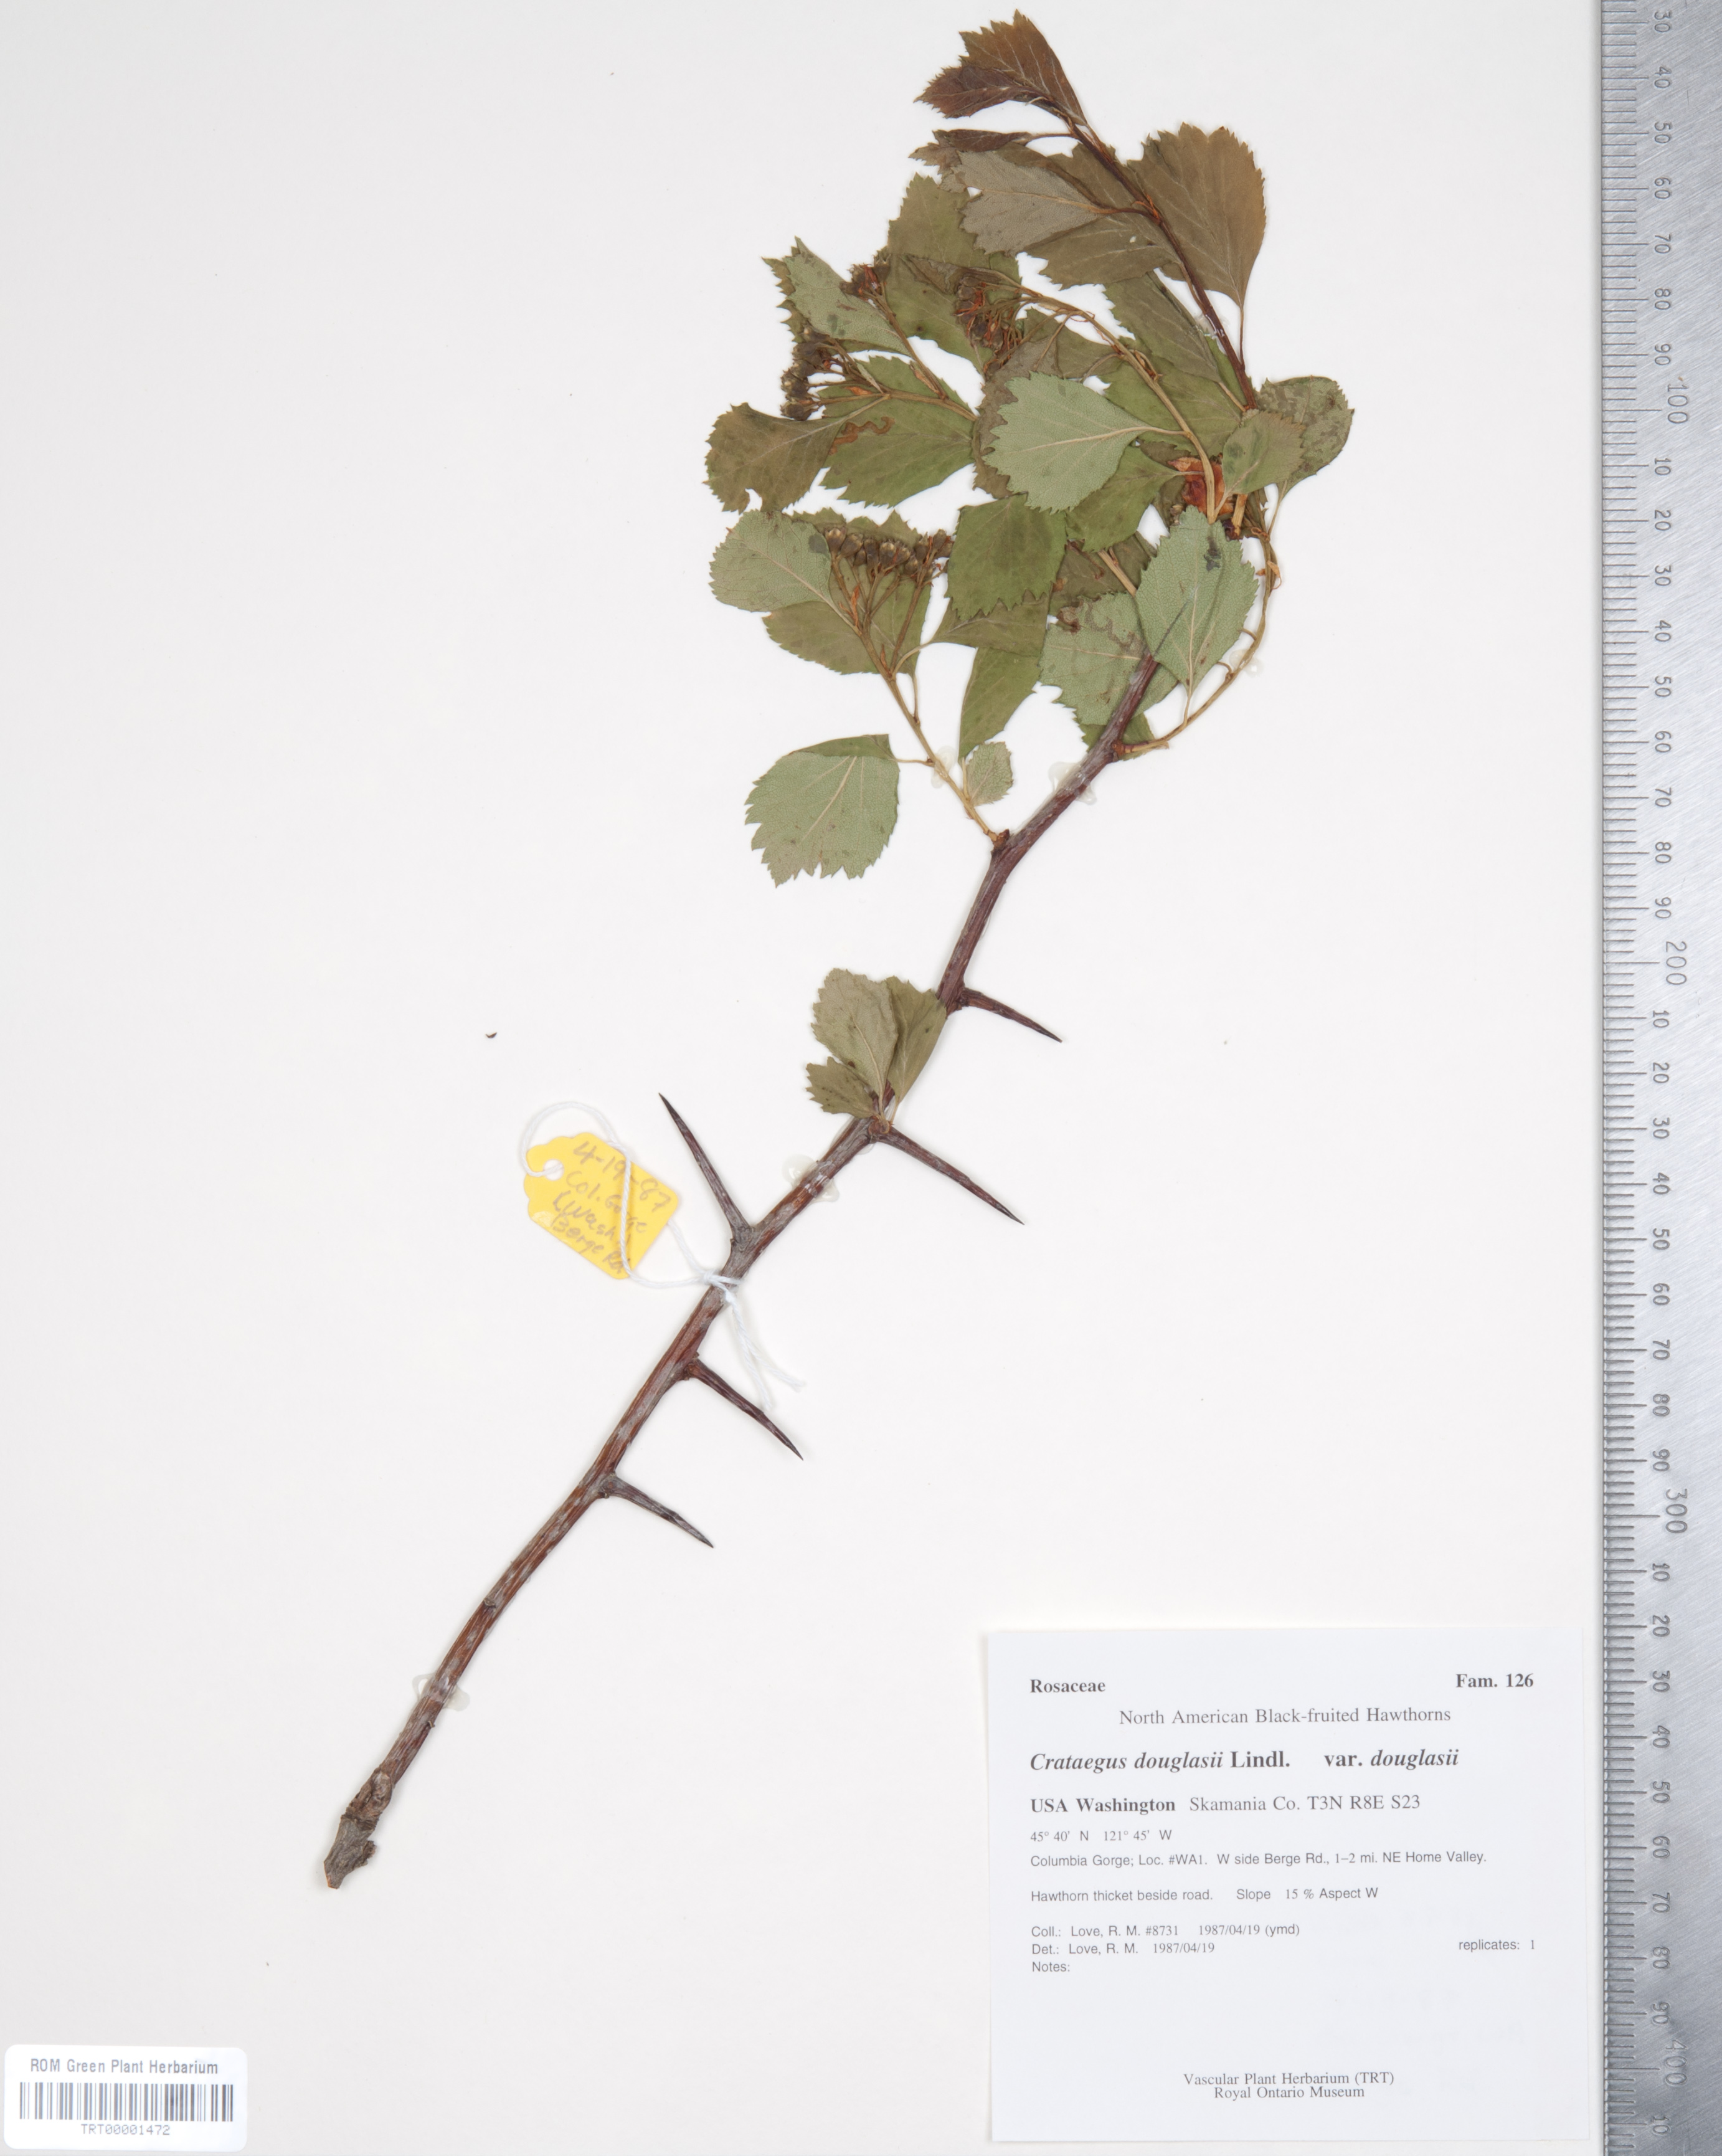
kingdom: Plantae
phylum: Tracheophyta
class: Magnoliopsida
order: Rosales
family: Rosaceae
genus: Crataegus
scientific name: Crataegus douglasii
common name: Black hawthorn
